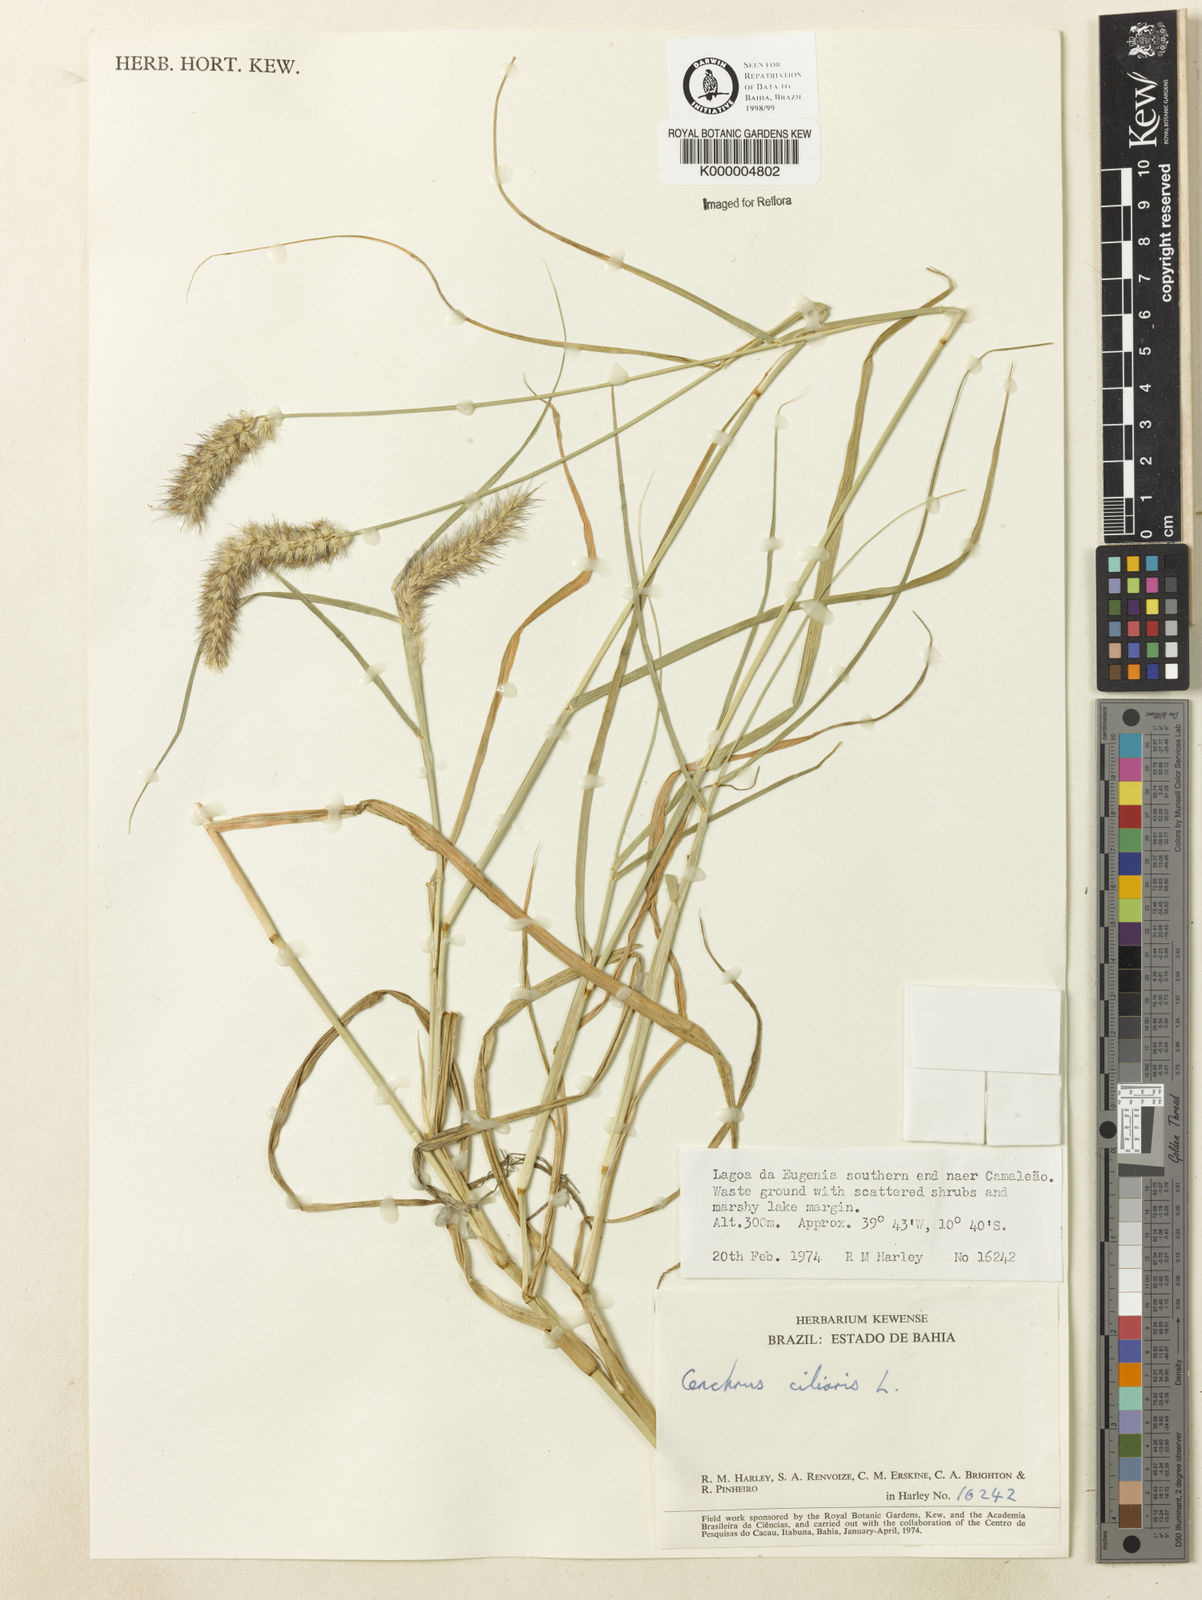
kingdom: Plantae
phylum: Tracheophyta
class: Liliopsida
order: Poales
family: Poaceae
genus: Cenchrus
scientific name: Cenchrus ciliaris
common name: Buffelgrass
